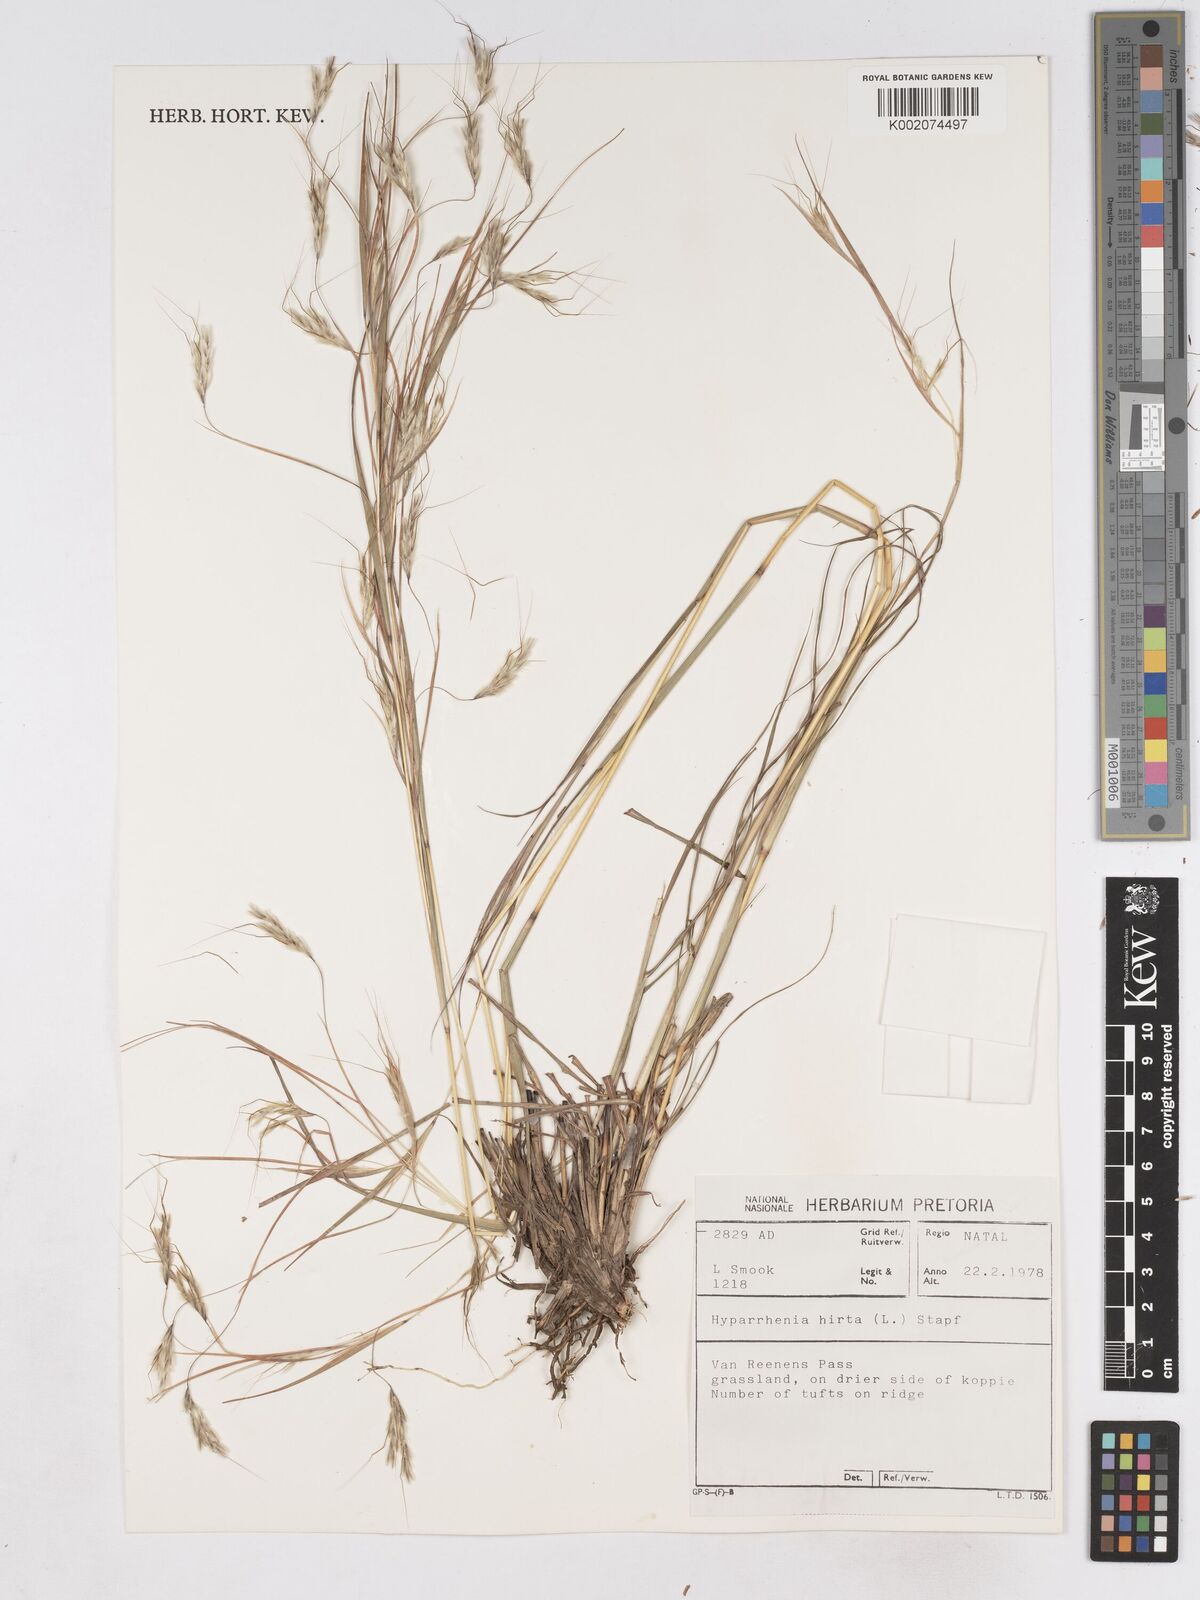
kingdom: Plantae
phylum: Tracheophyta
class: Liliopsida
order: Poales
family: Poaceae
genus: Hyparrhenia
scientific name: Hyparrhenia hirta
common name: Thatching grass
